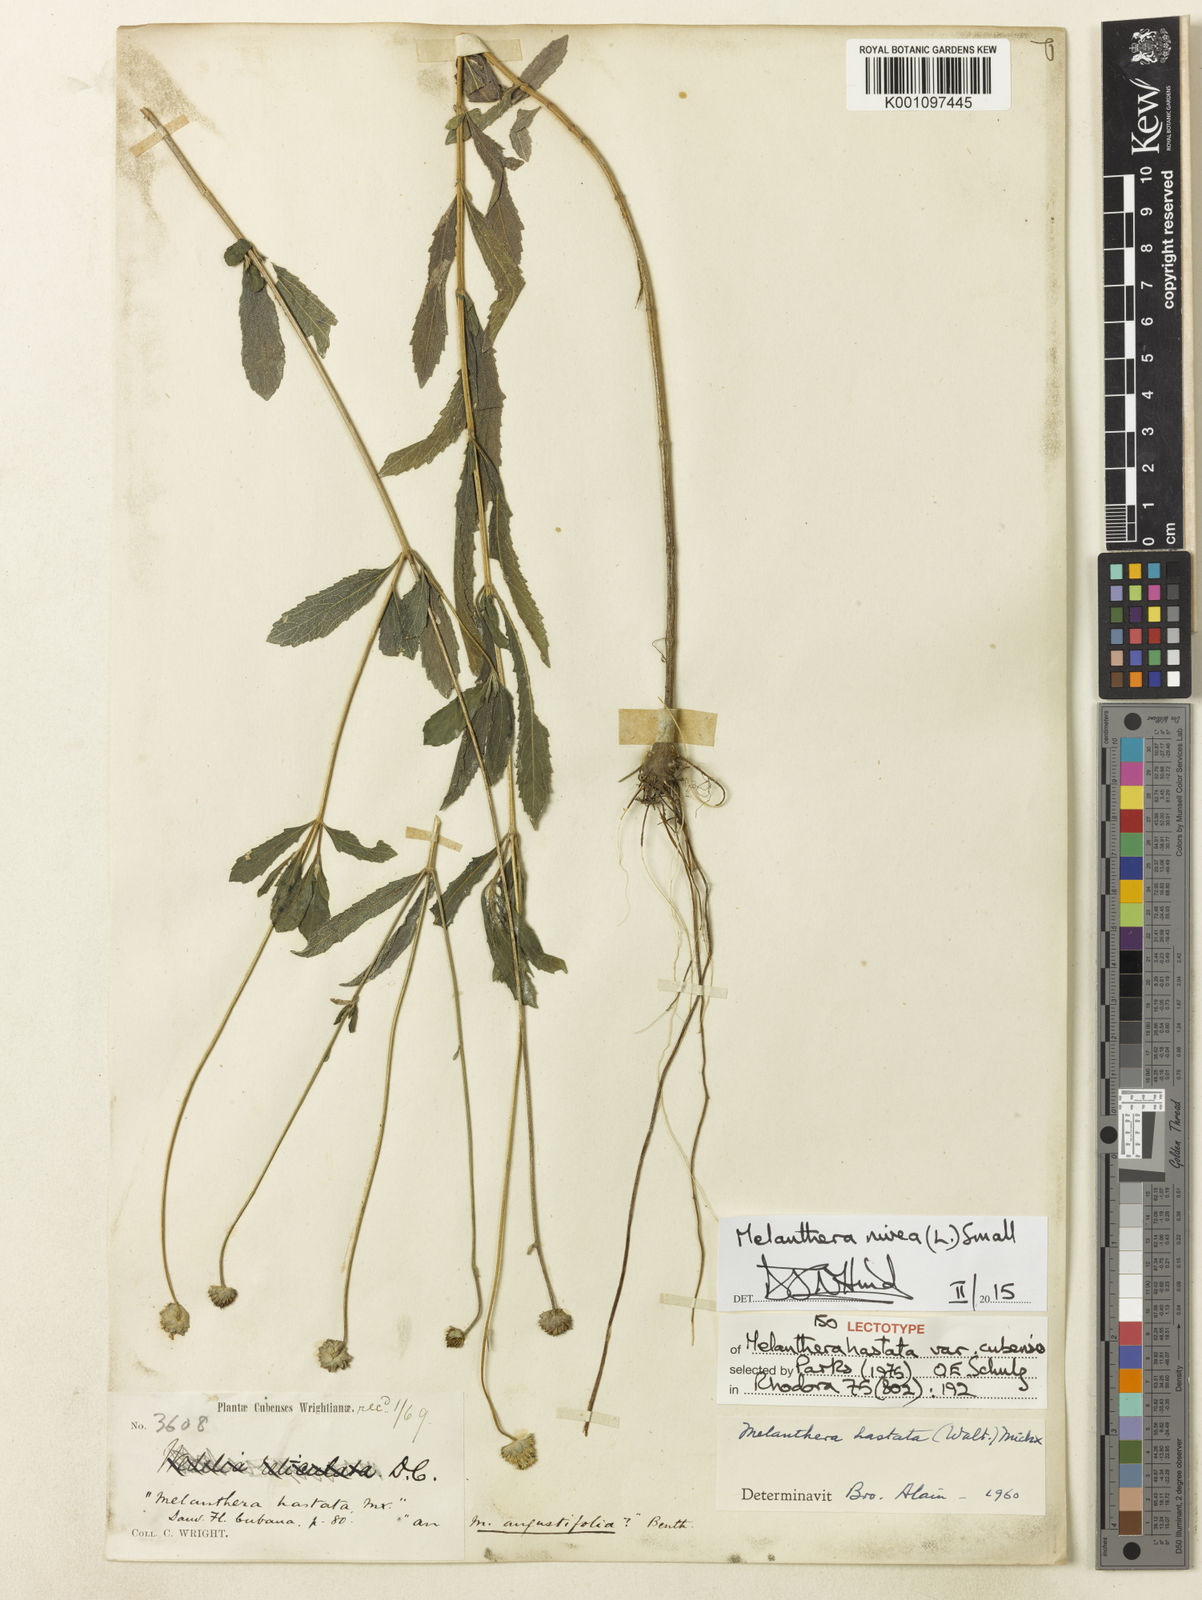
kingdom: Plantae
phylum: Tracheophyta
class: Magnoliopsida
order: Asterales
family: Asteraceae
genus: Melanthera
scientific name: Melanthera nivea
